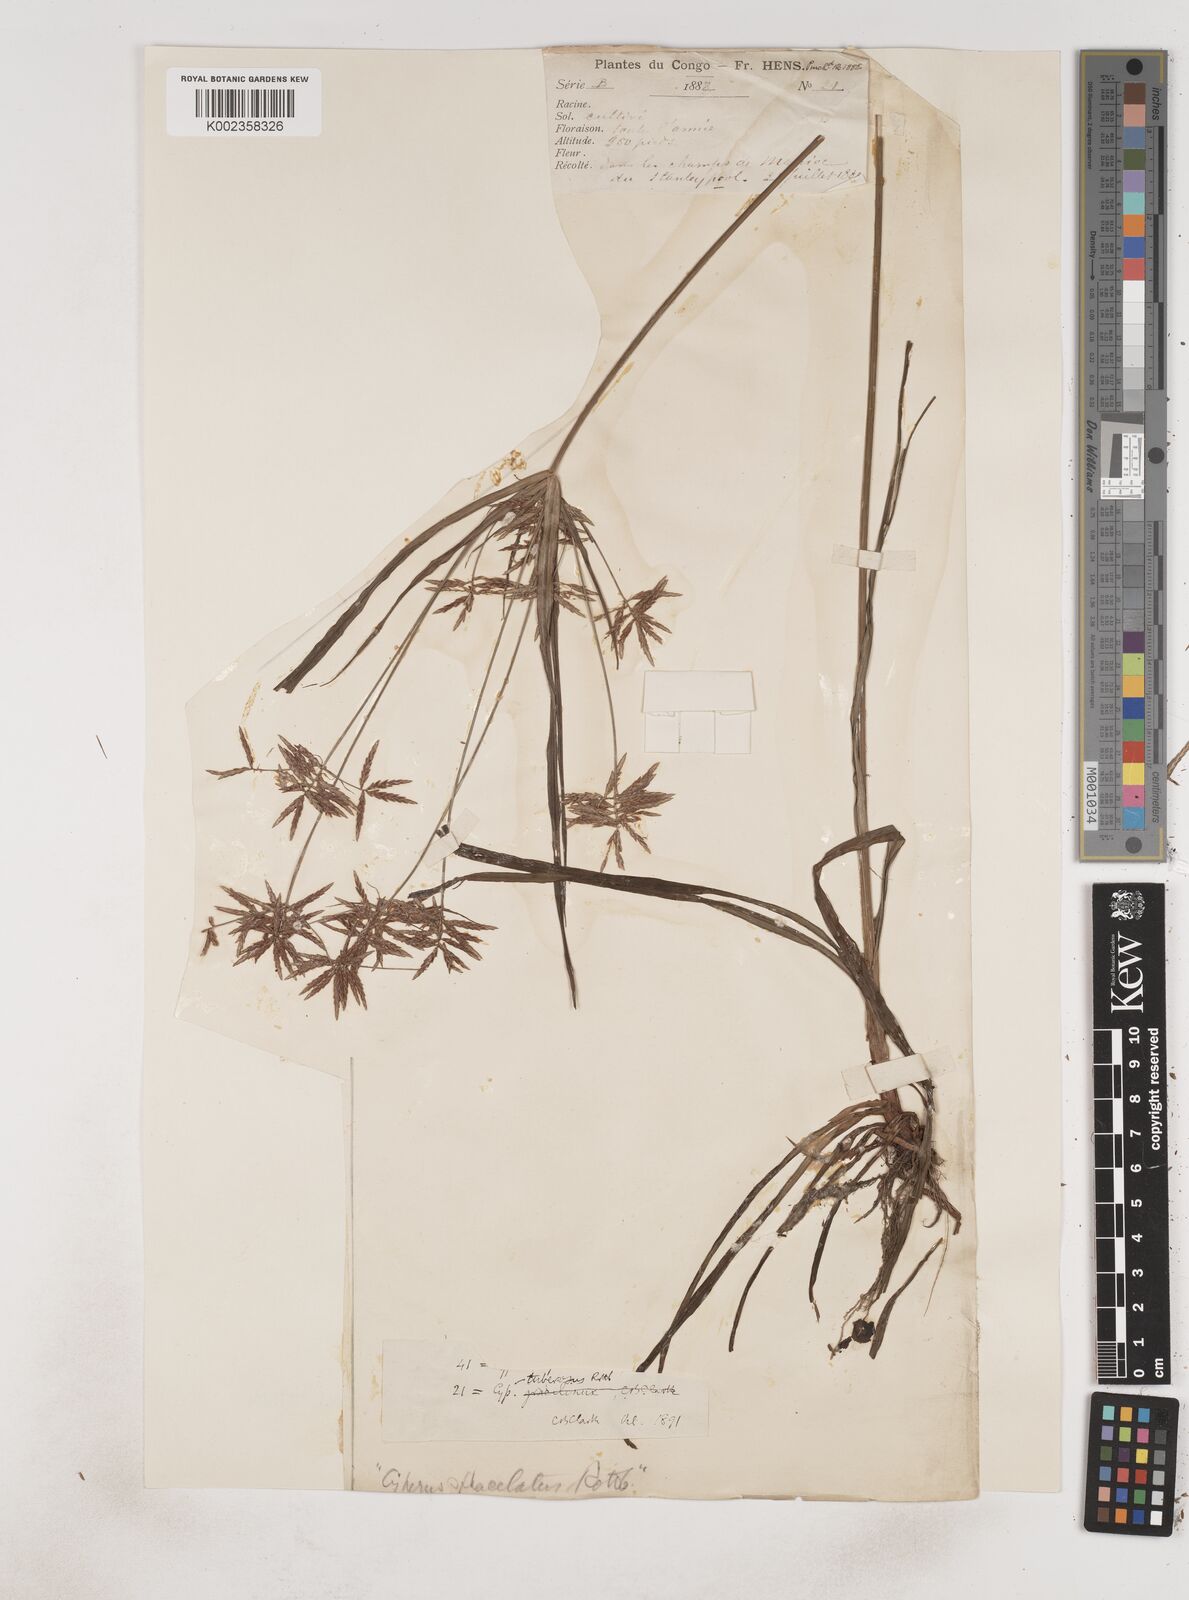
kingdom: Plantae
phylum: Tracheophyta
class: Liliopsida
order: Poales
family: Cyperaceae
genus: Cyperus
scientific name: Cyperus tuberosus
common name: Nut grass
